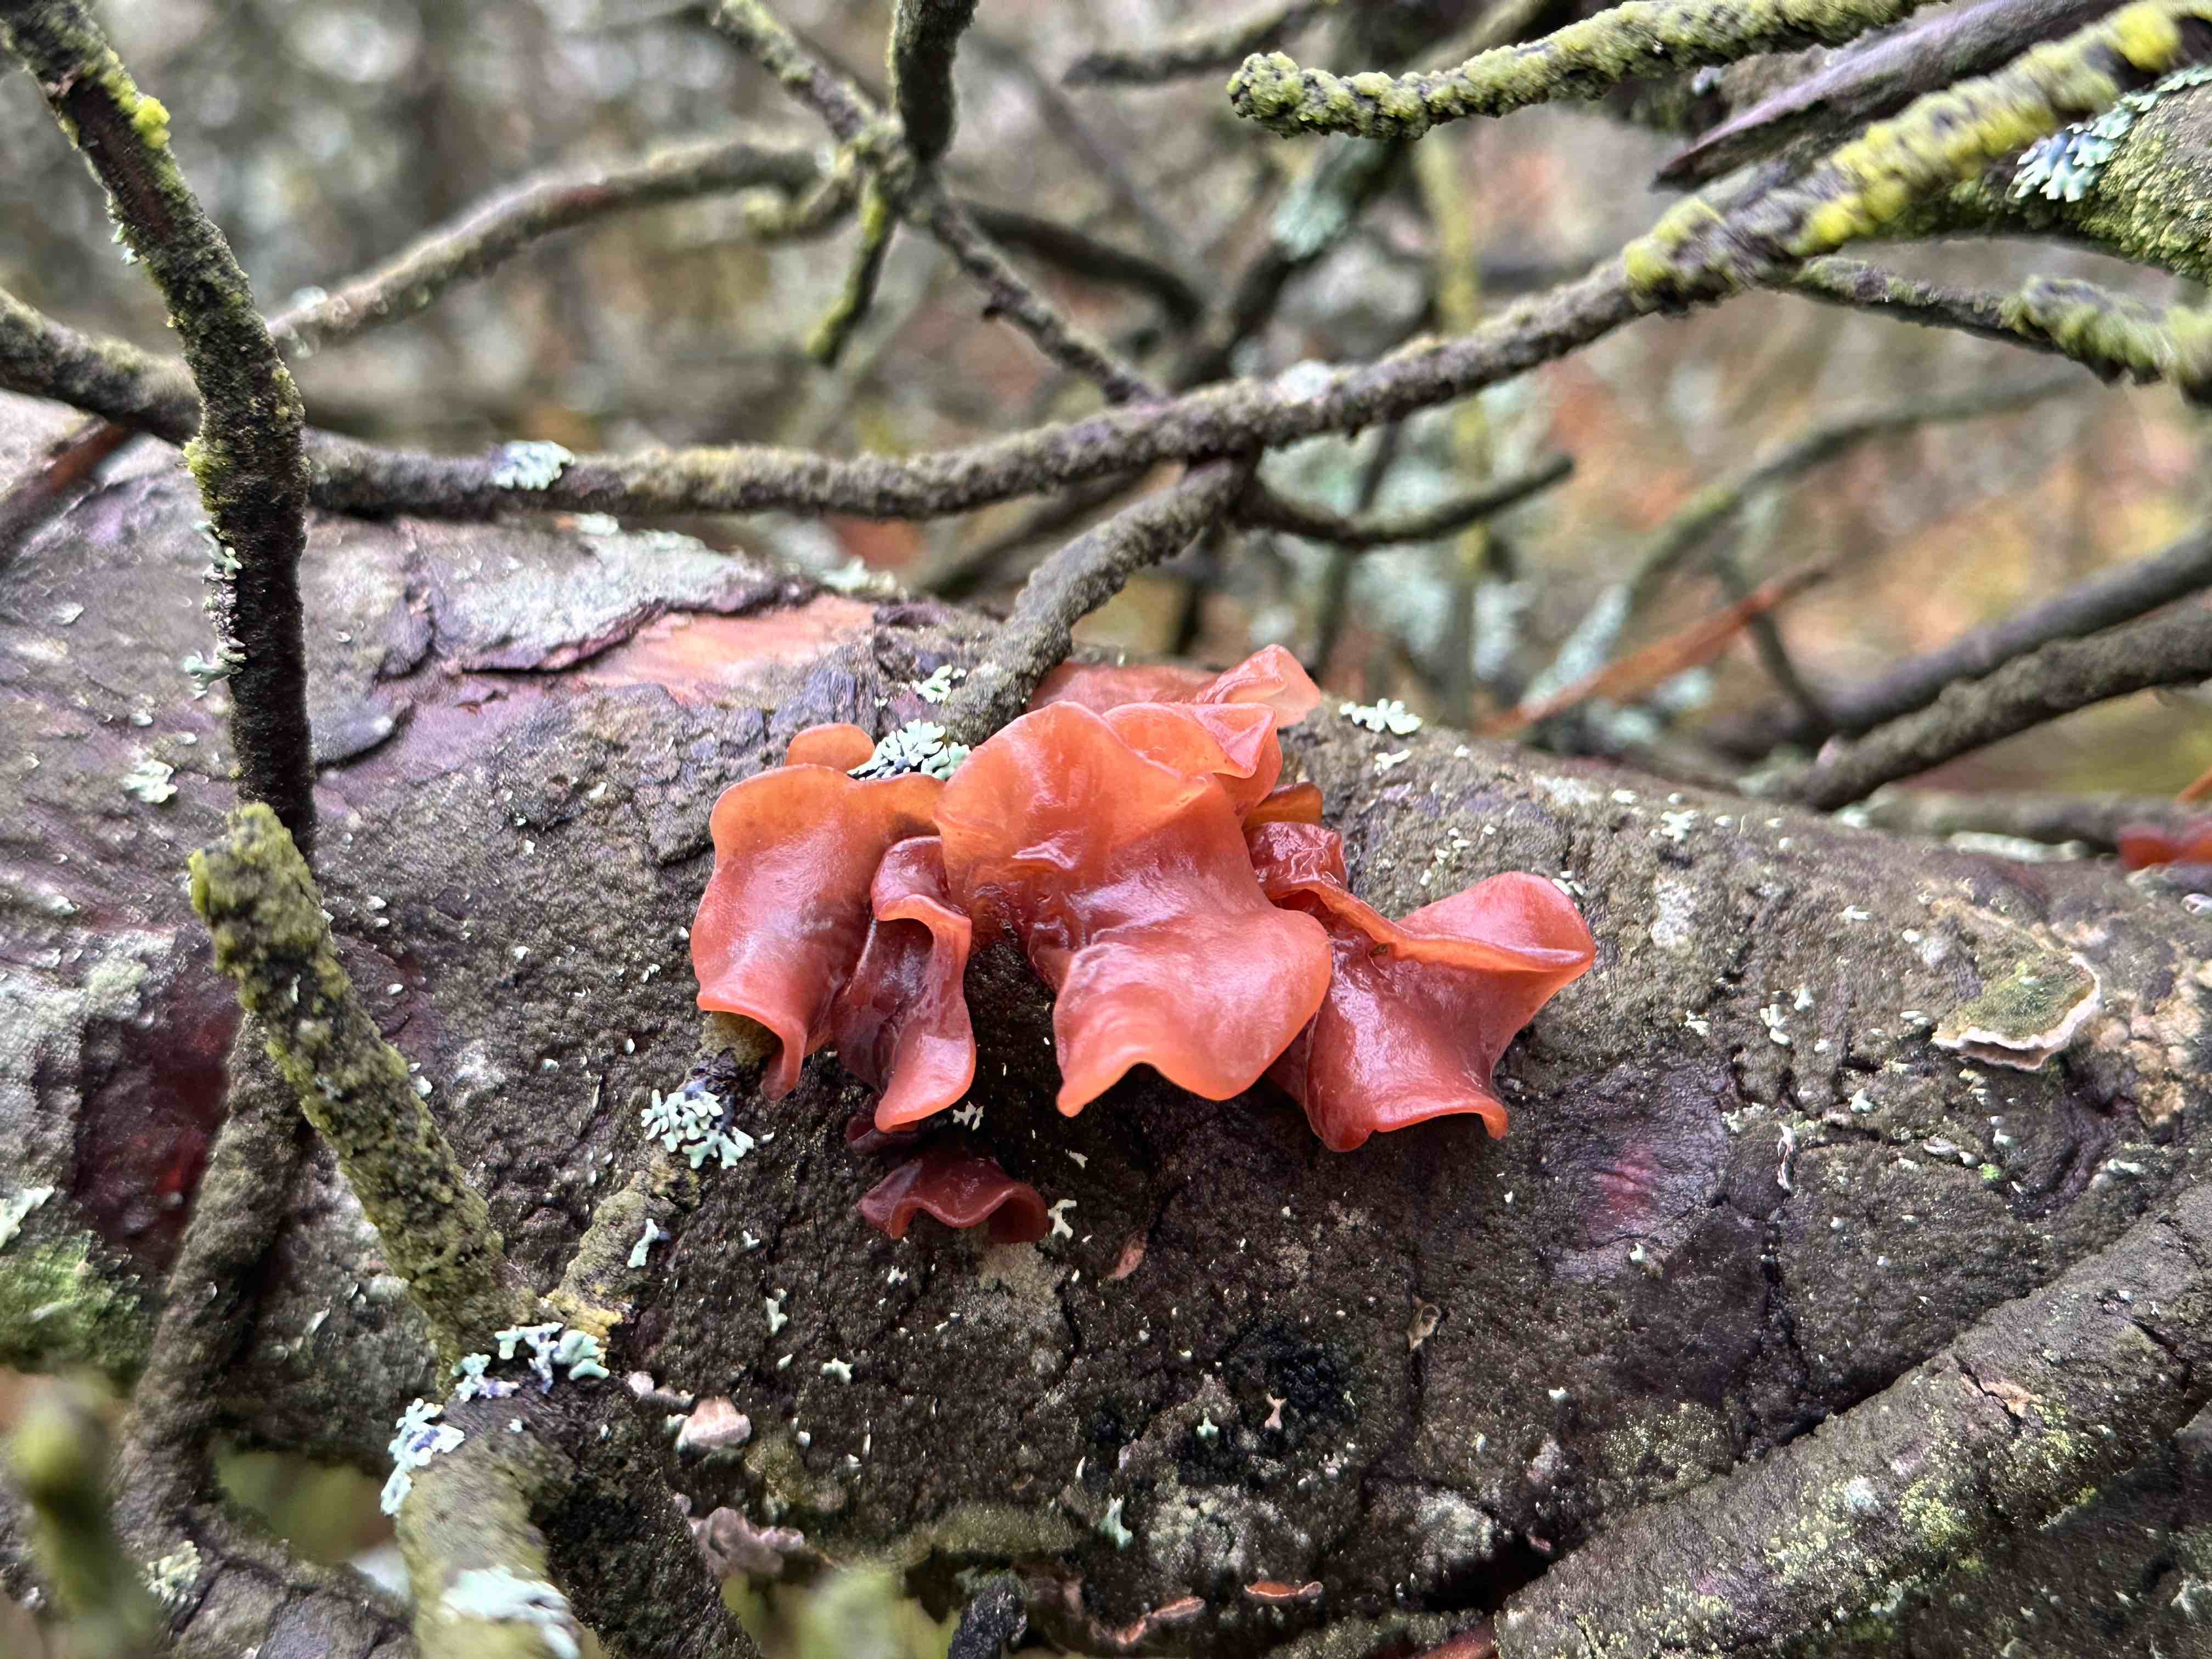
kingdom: Fungi
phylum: Basidiomycota
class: Tremellomycetes
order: Tremellales
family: Tremellaceae
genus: Phaeotremella
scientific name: Phaeotremella foliacea
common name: brun bævresvamp
